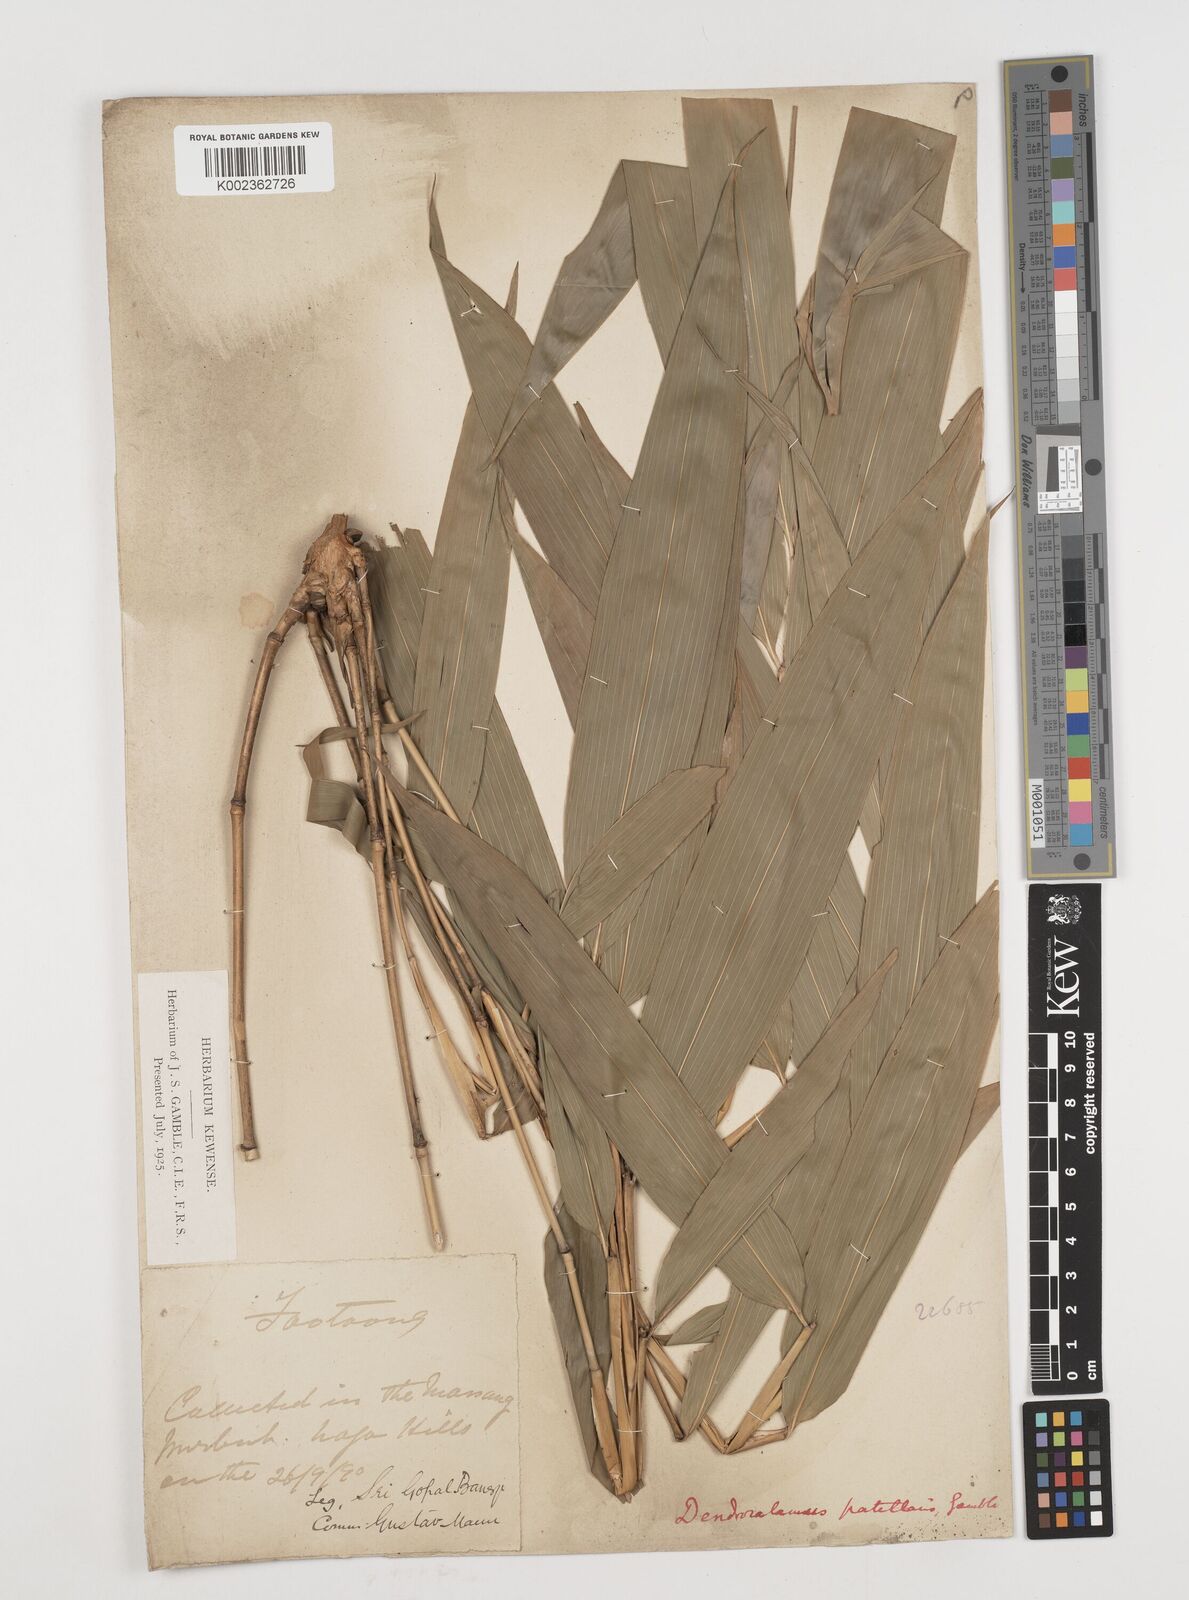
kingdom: Plantae
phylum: Tracheophyta
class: Liliopsida
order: Poales
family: Poaceae
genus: Ampelocalamus
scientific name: Ampelocalamus patellaris
